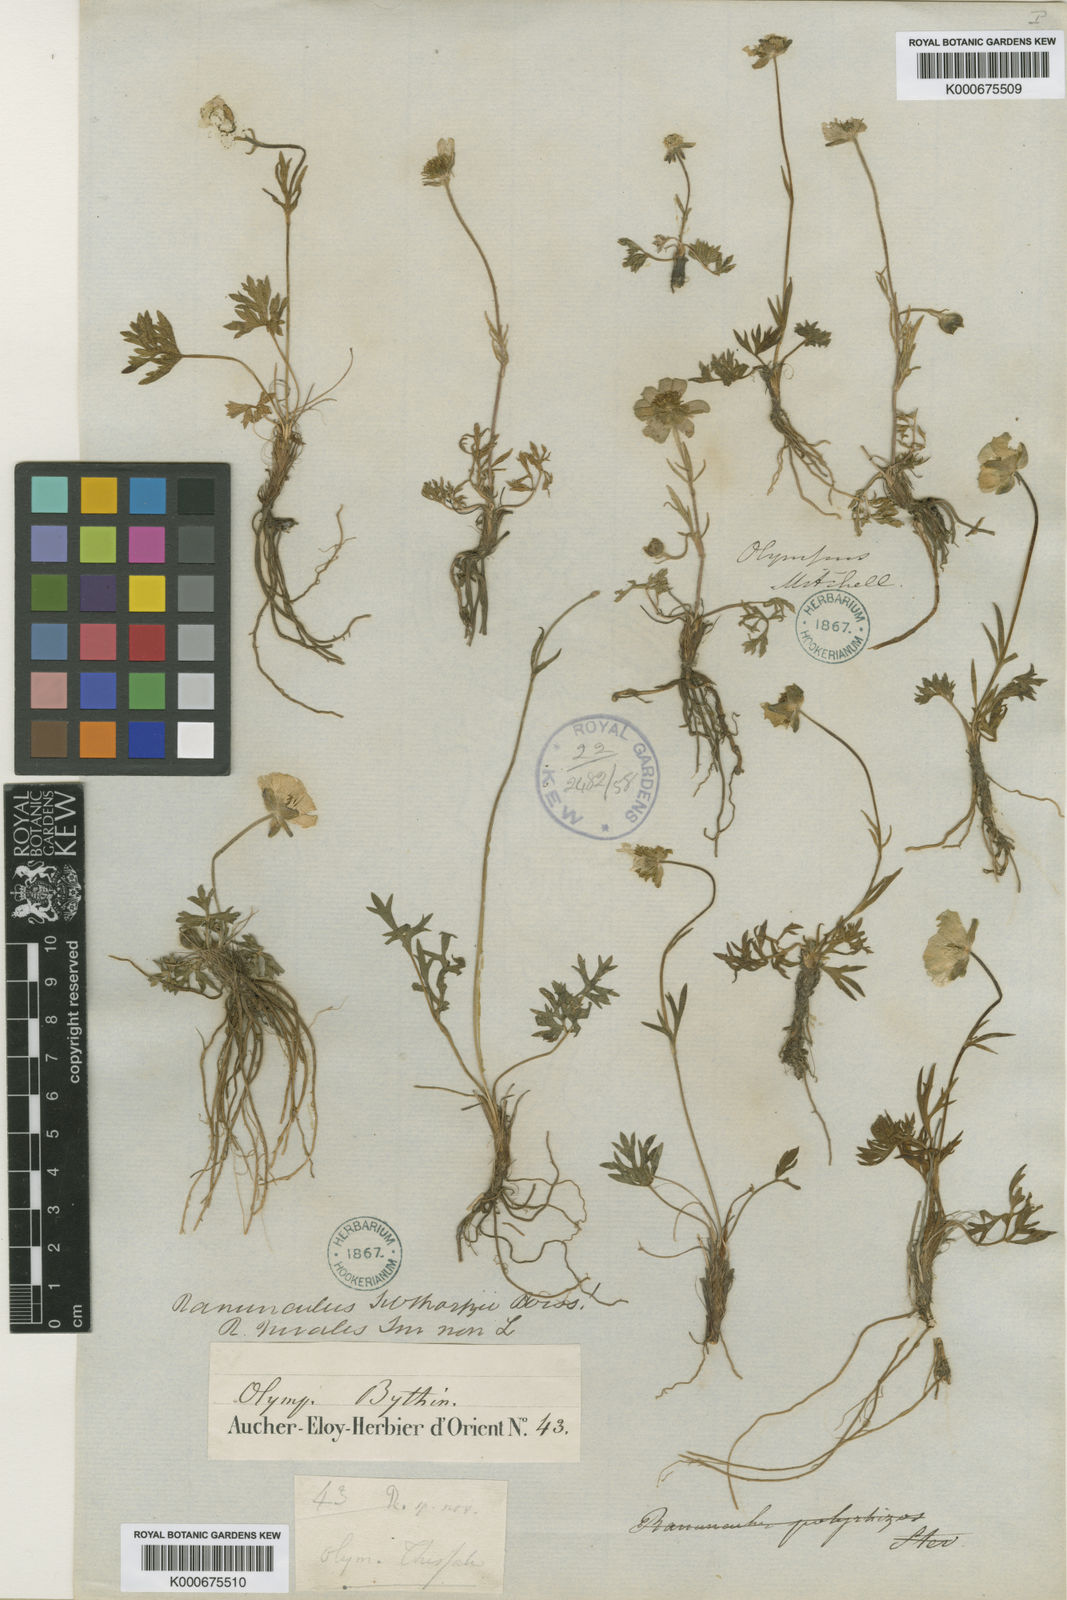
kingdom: Plantae
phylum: Tracheophyta
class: Magnoliopsida
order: Ranunculales
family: Ranunculaceae
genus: Ranunculus
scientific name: Ranunculus dissectus
